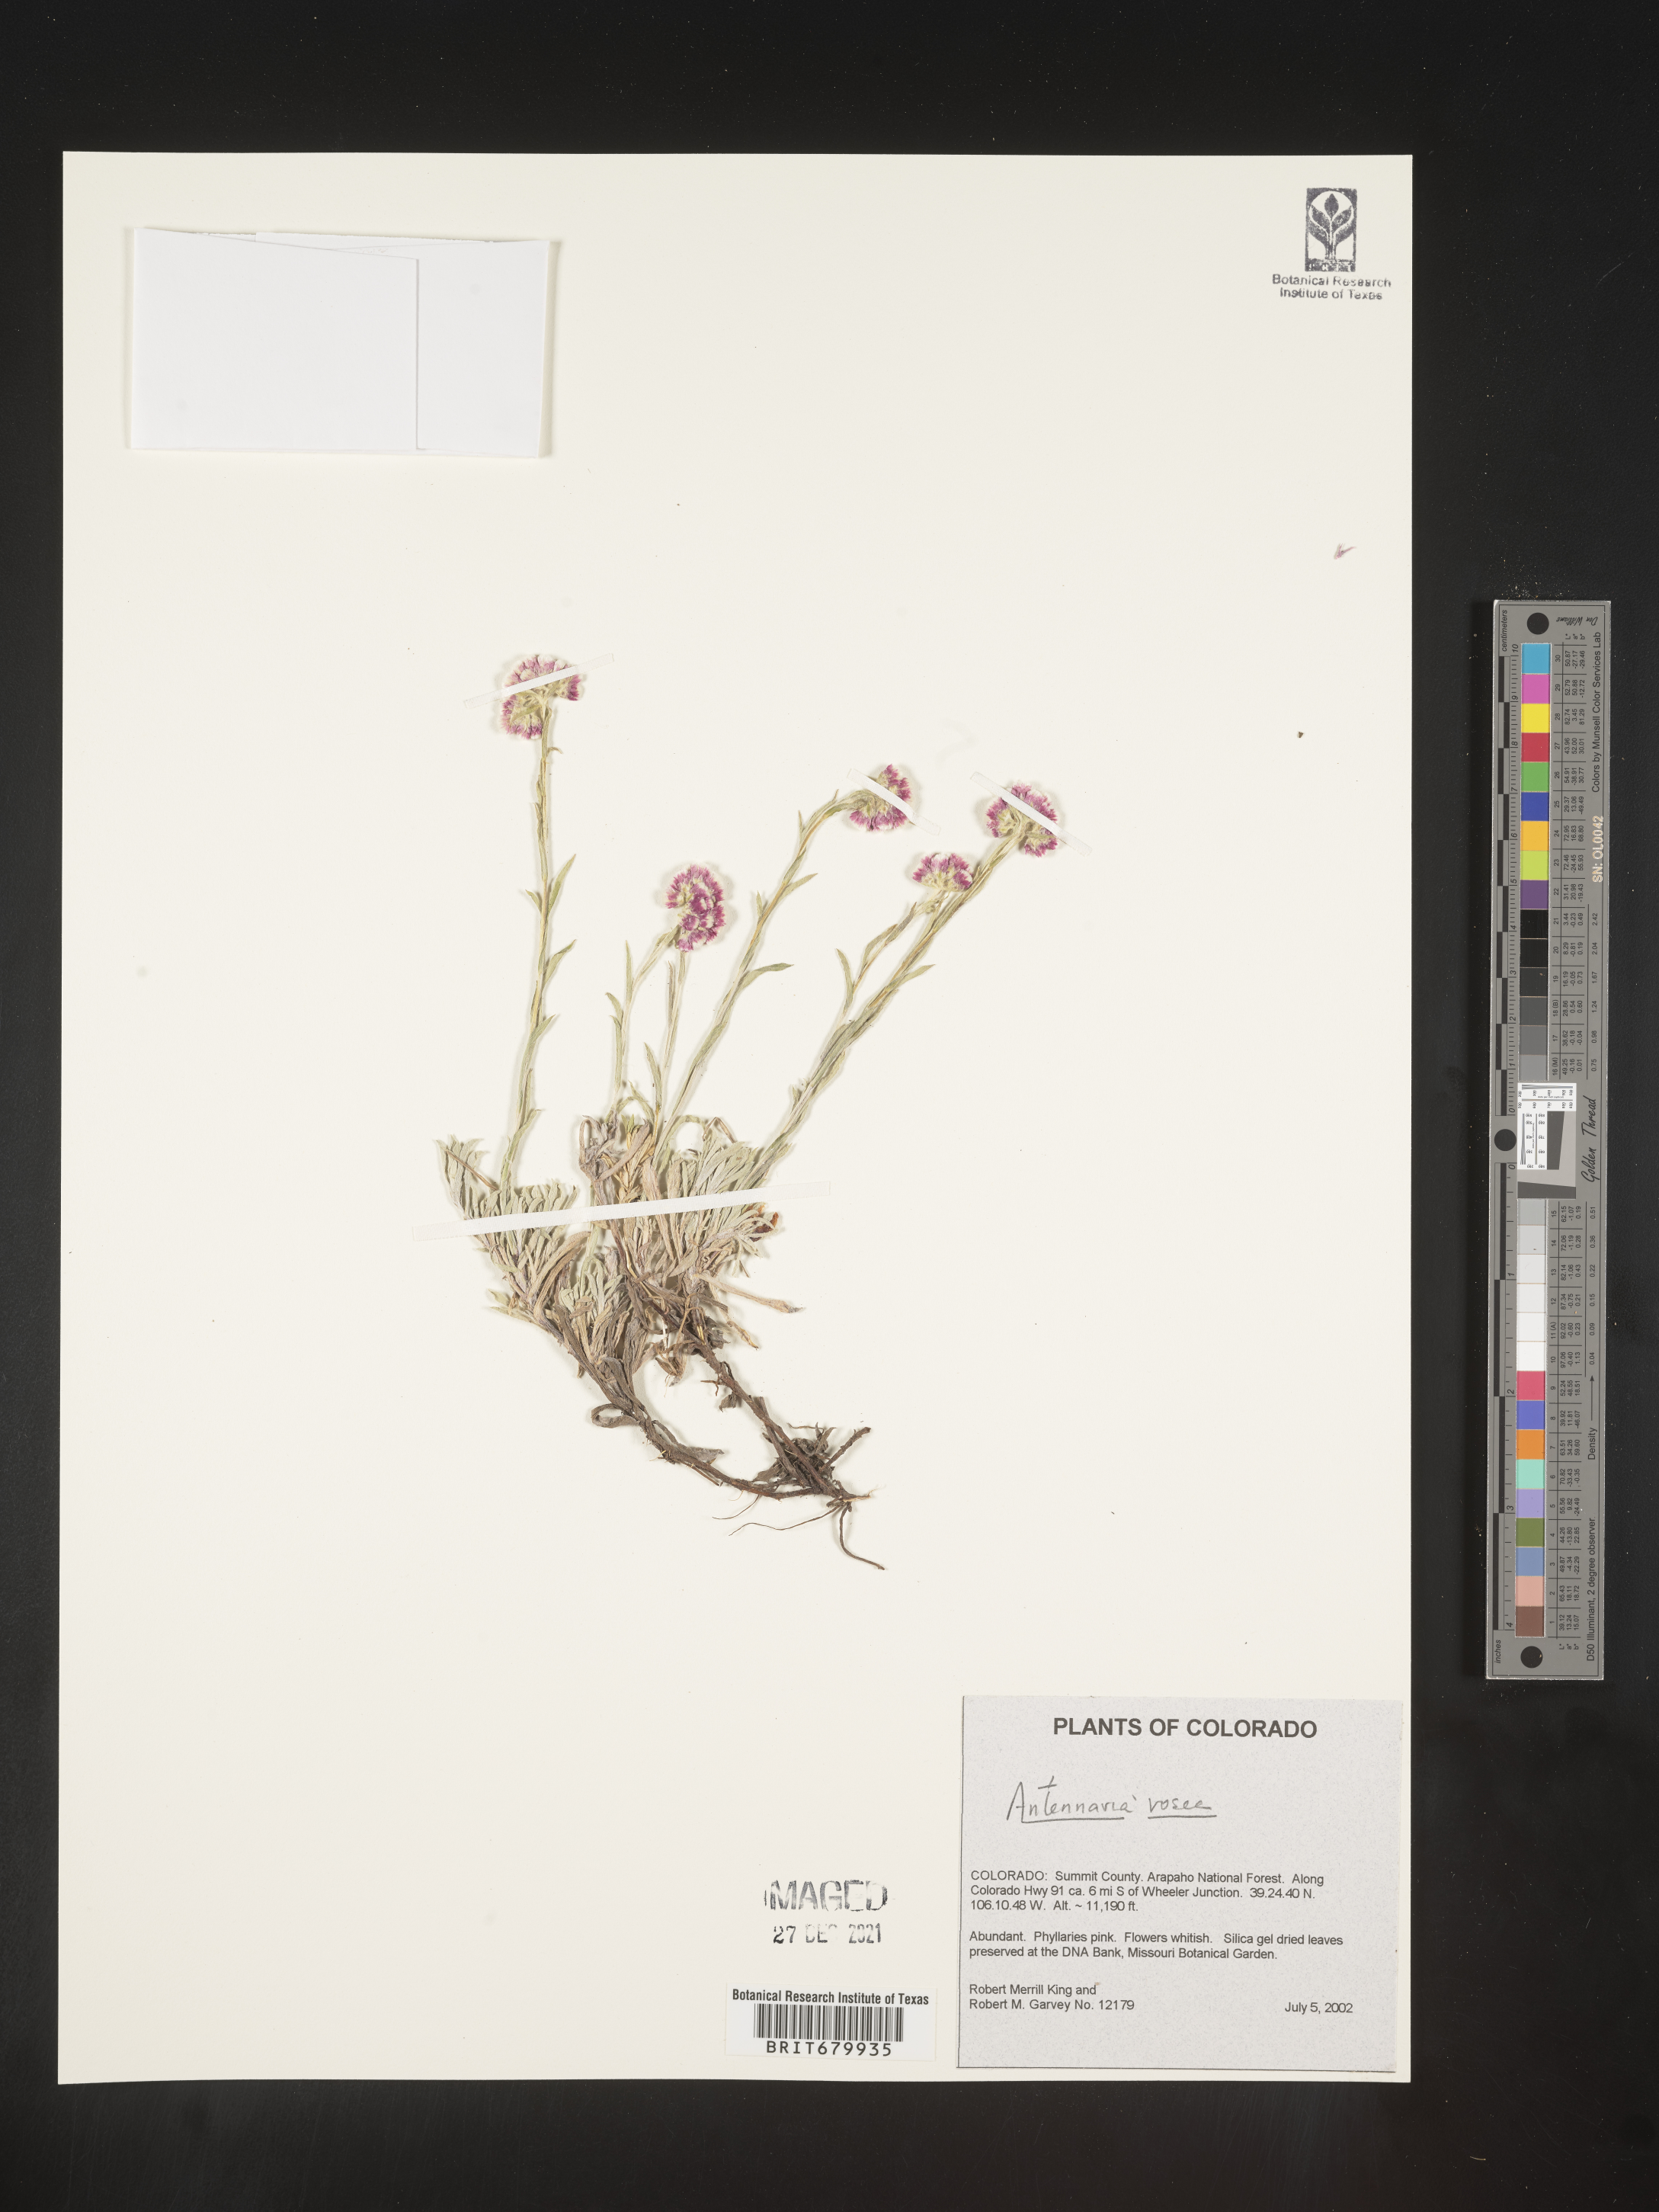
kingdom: Plantae
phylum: Tracheophyta
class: Magnoliopsida
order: Asterales
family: Asteraceae
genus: Antennaria
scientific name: Antennaria rosea
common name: Rosy pussytoes
